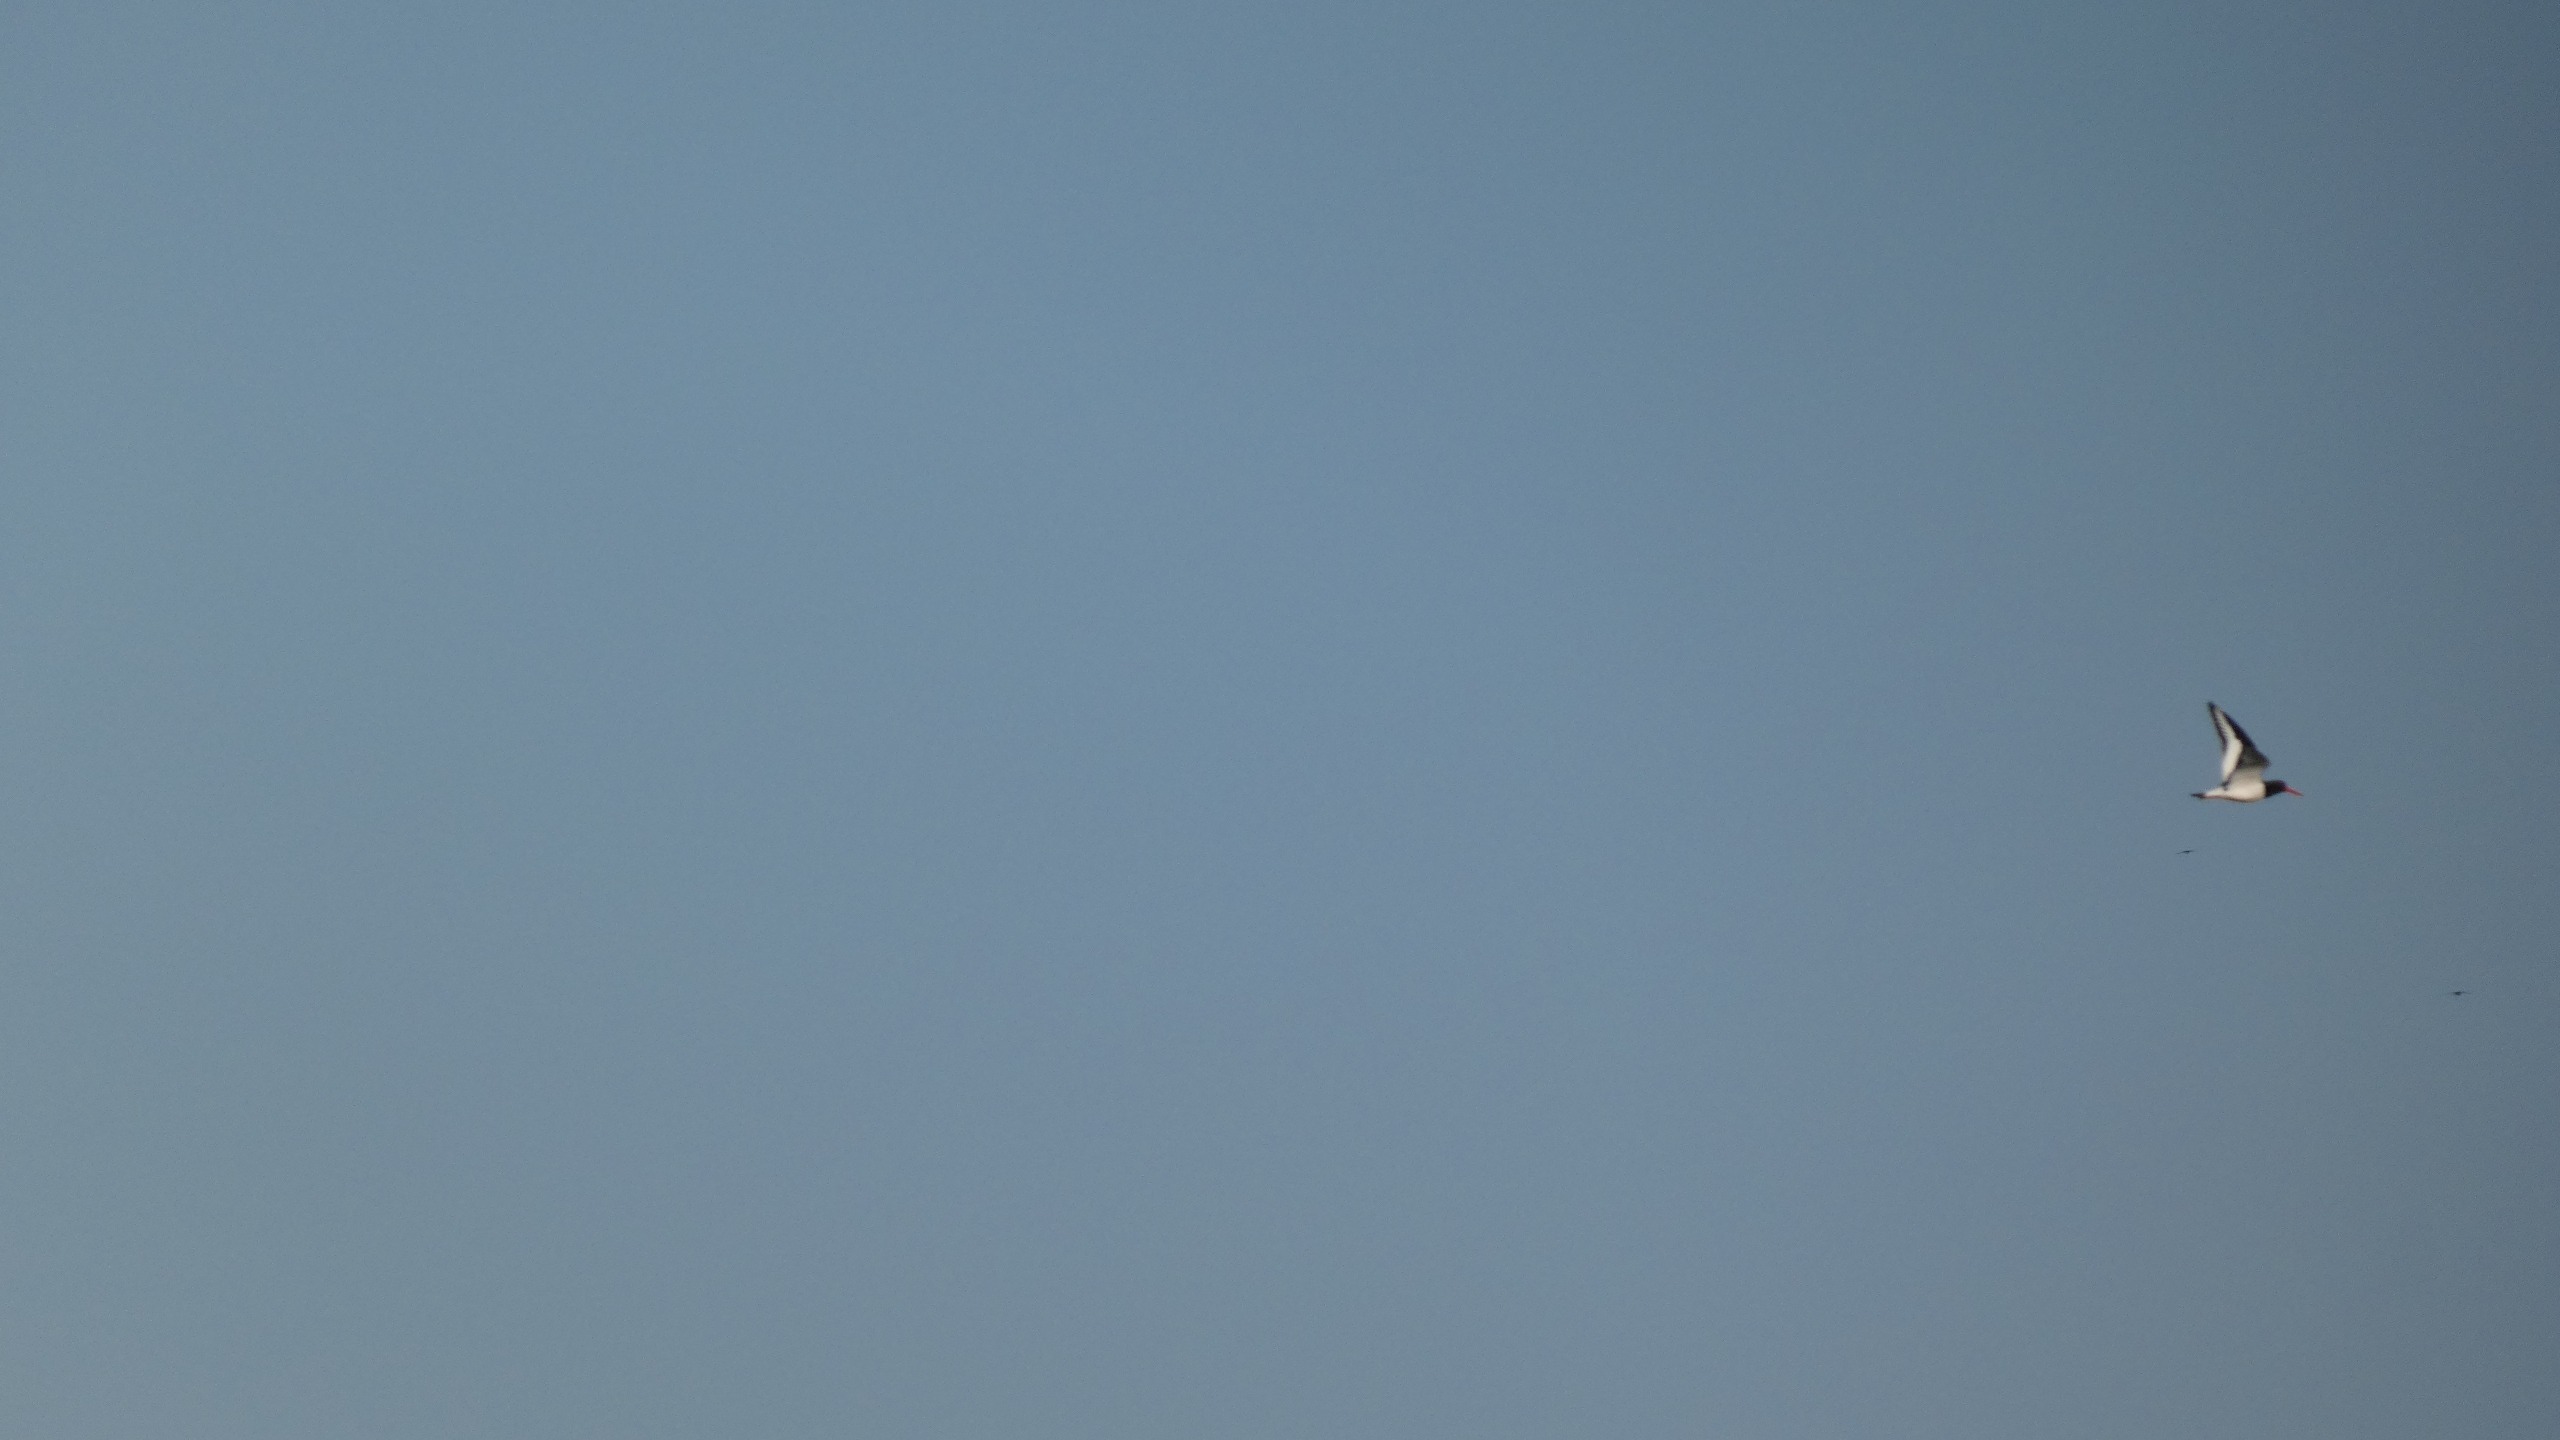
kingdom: Animalia
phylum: Chordata
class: Aves
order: Charadriiformes
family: Haematopodidae
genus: Haematopus
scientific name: Haematopus ostralegus
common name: Strandskade
